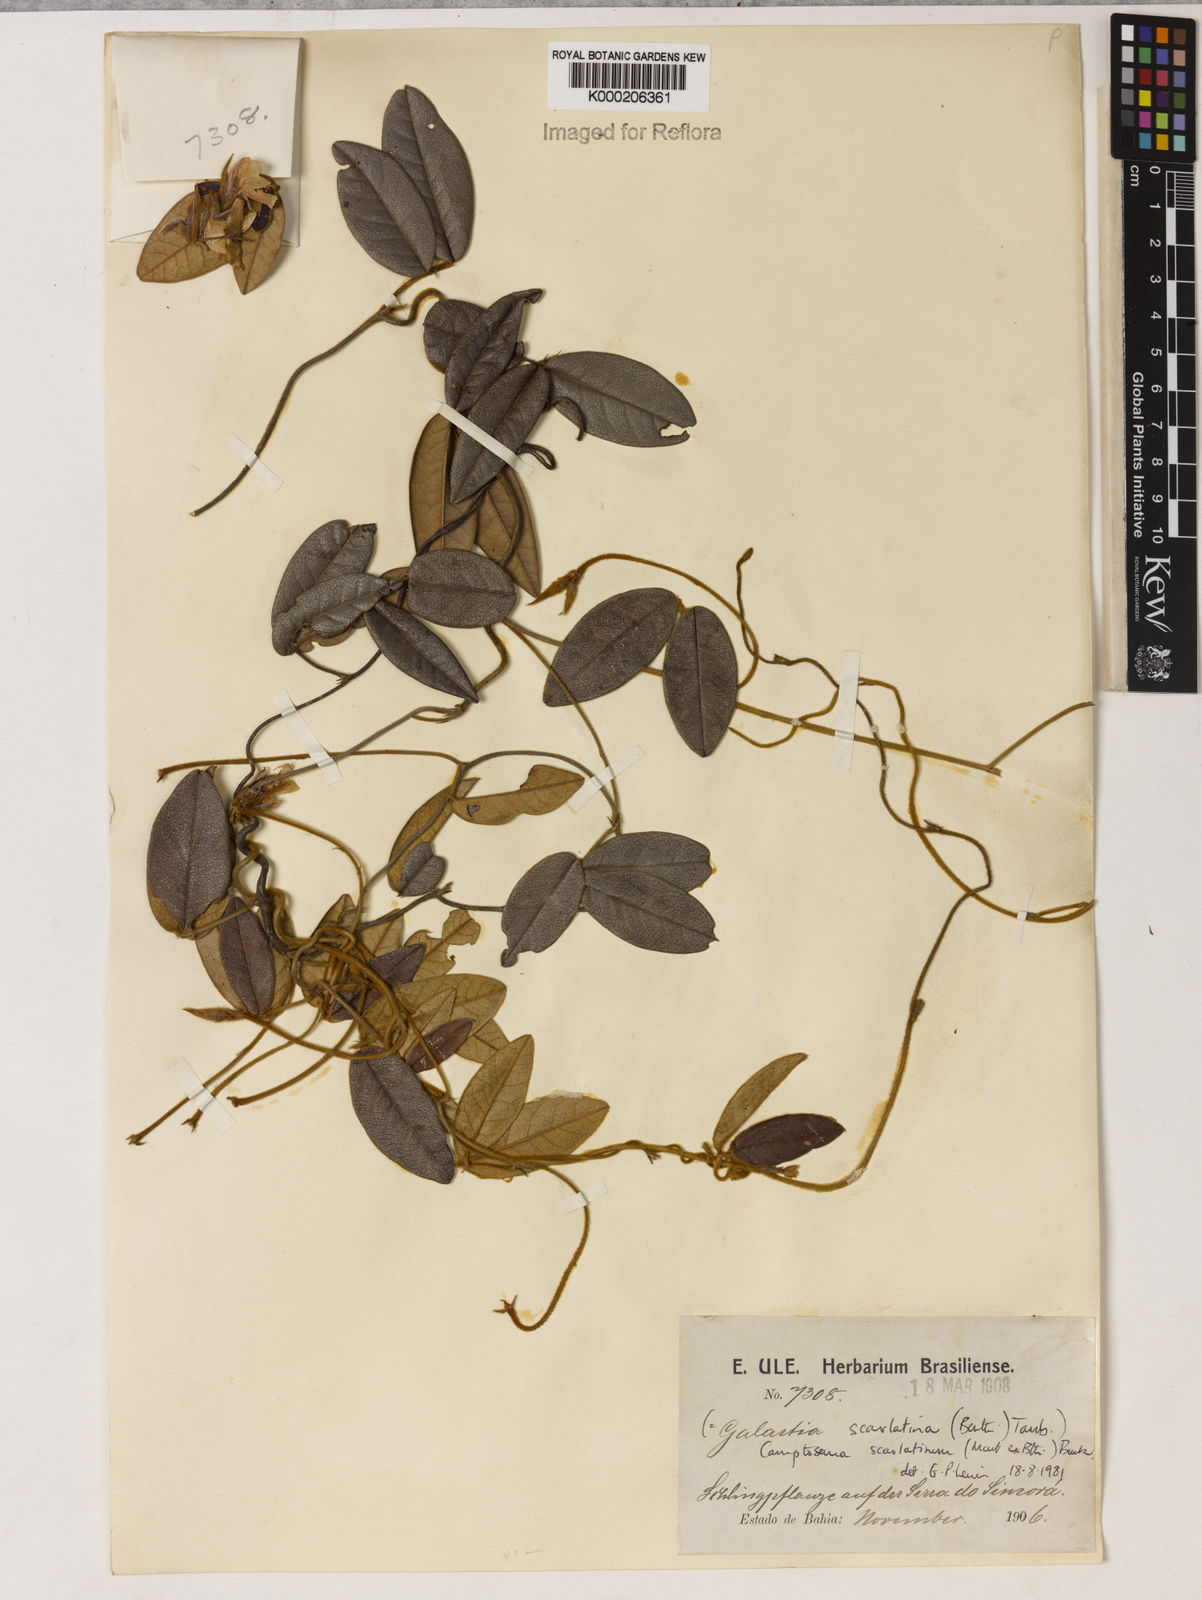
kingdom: Plantae
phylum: Tracheophyta
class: Magnoliopsida
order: Fabales
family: Fabaceae
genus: Camptosema
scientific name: Camptosema spectabile
